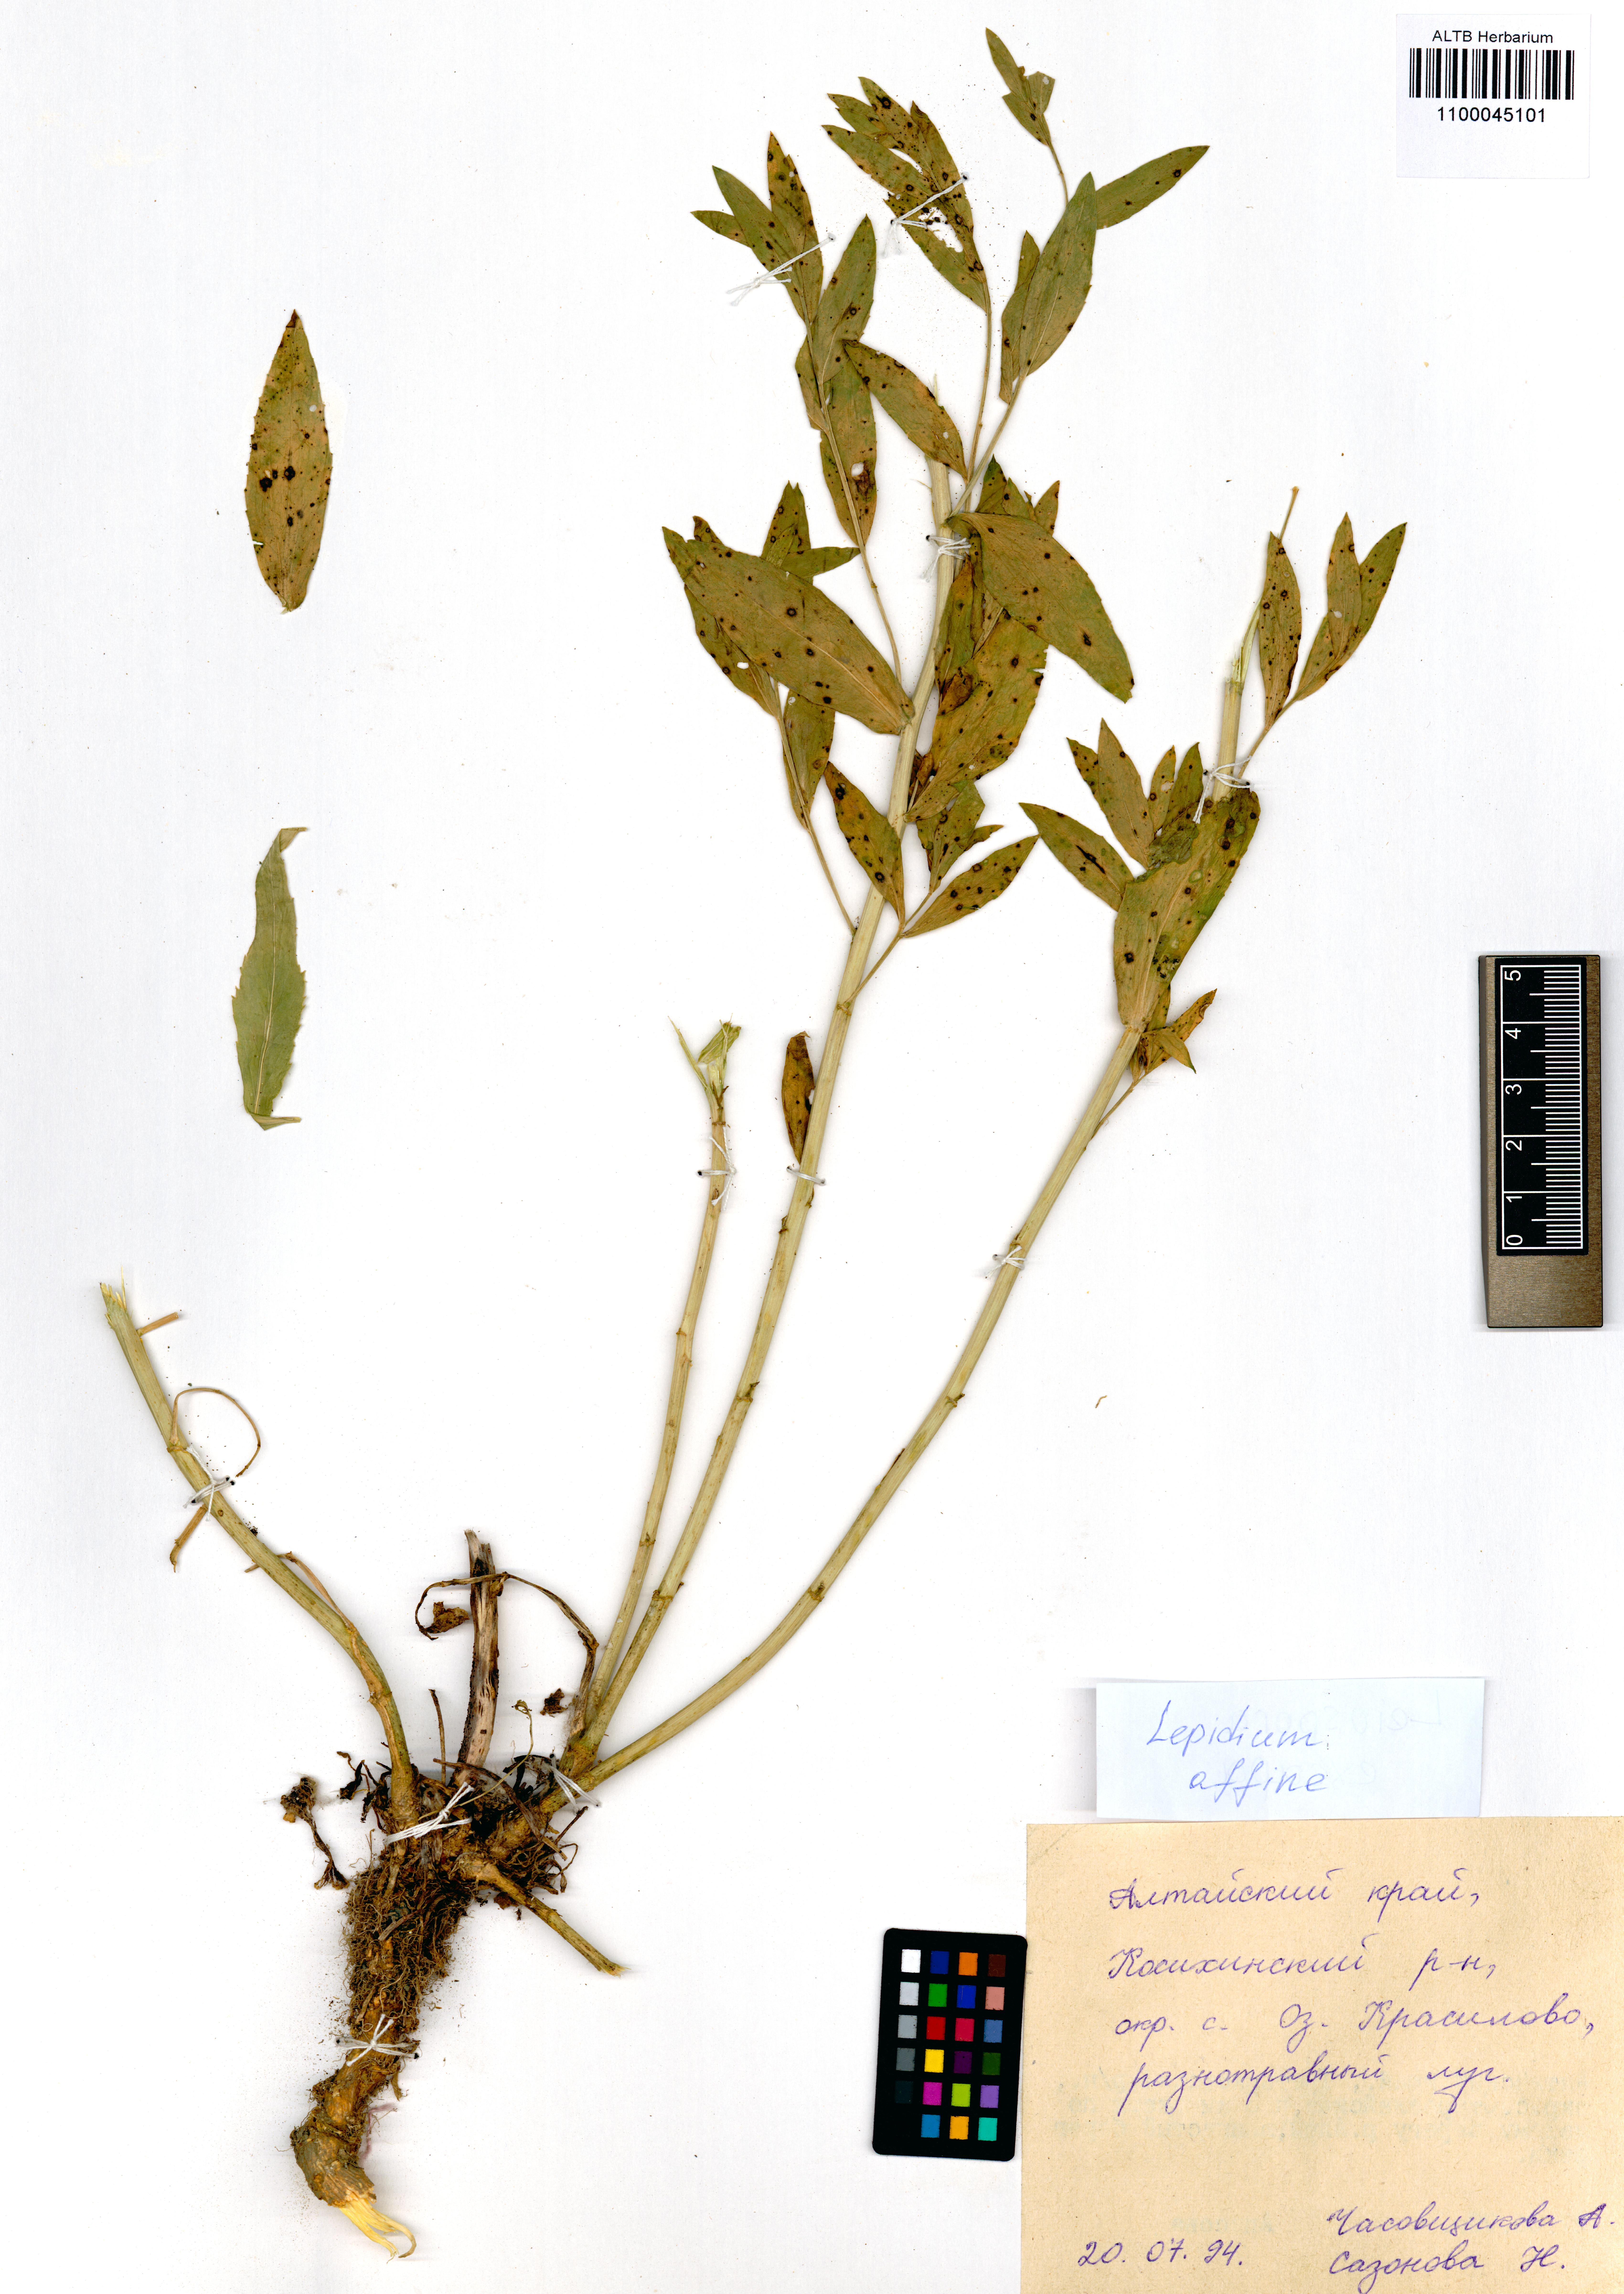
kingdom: Plantae
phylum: Tracheophyta
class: Magnoliopsida
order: Brassicales
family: Brassicaceae
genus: Lepidium
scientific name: Lepidium latifolium
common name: Dittander
